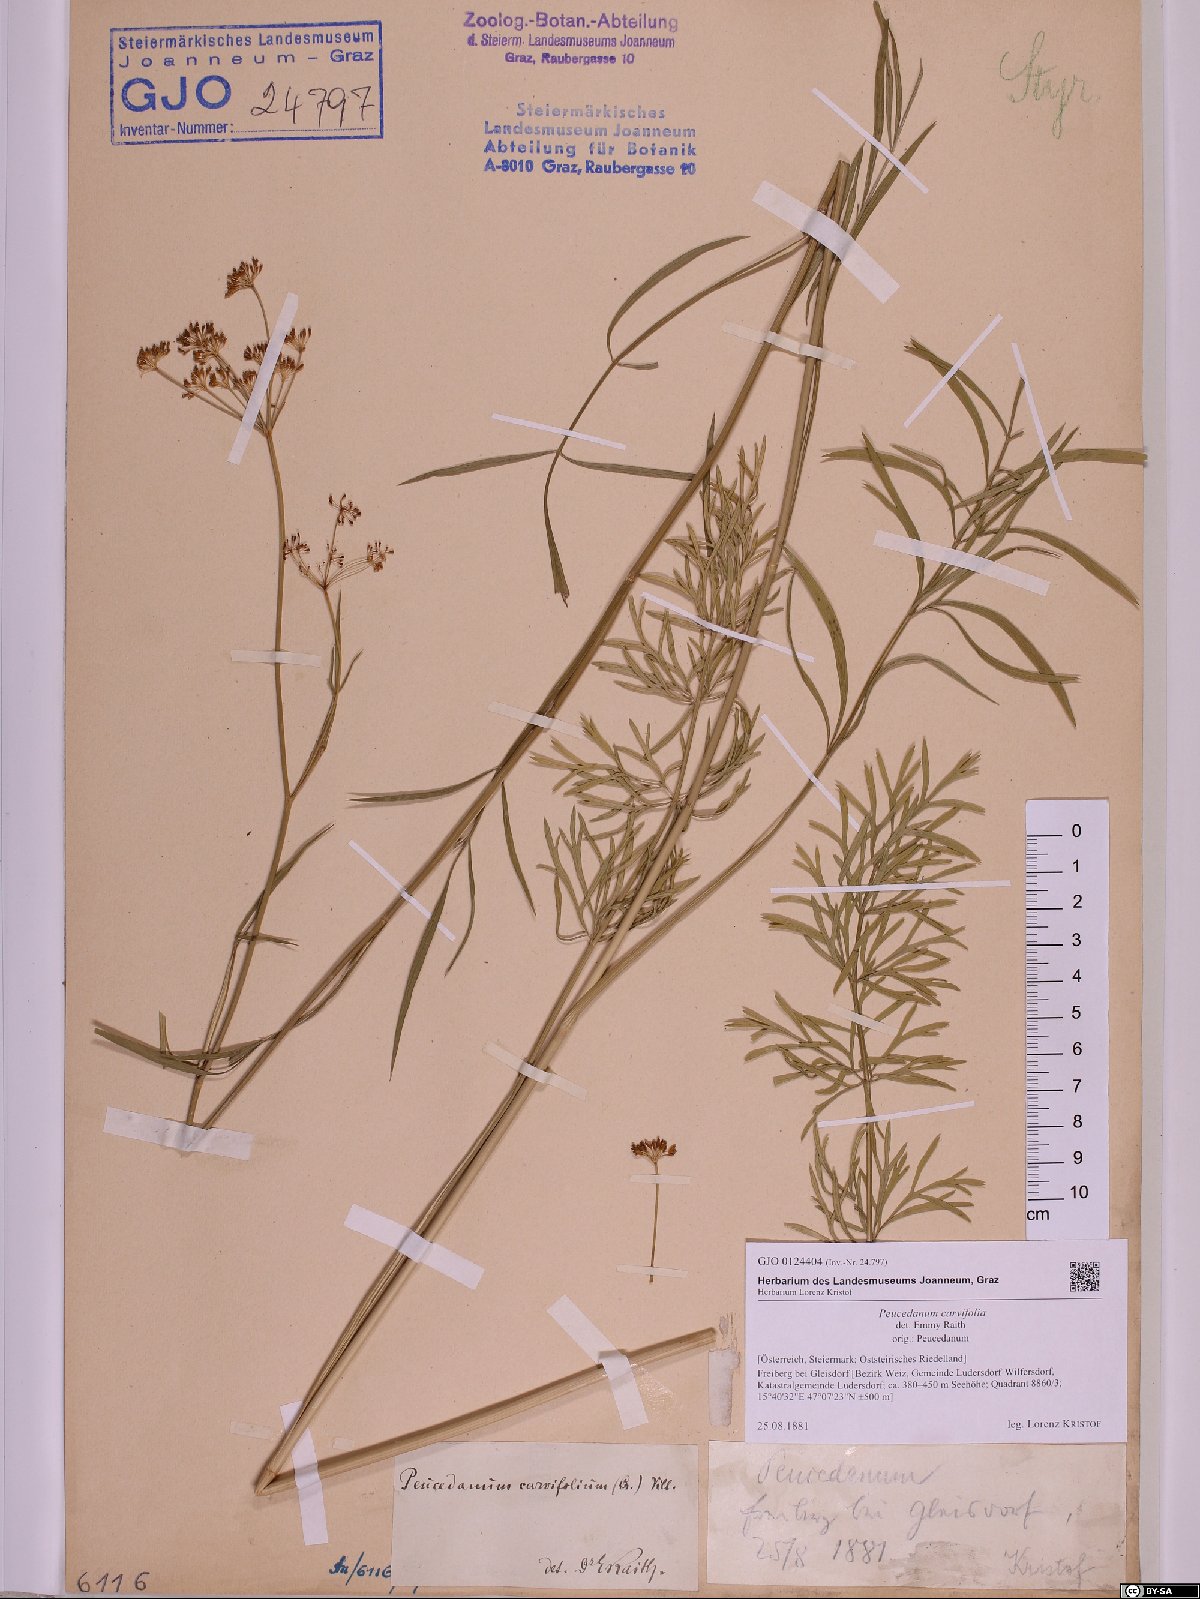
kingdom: Plantae
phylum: Tracheophyta
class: Magnoliopsida
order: Apiales
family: Apiaceae
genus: Dichoropetalum
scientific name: Dichoropetalum carvifolia
